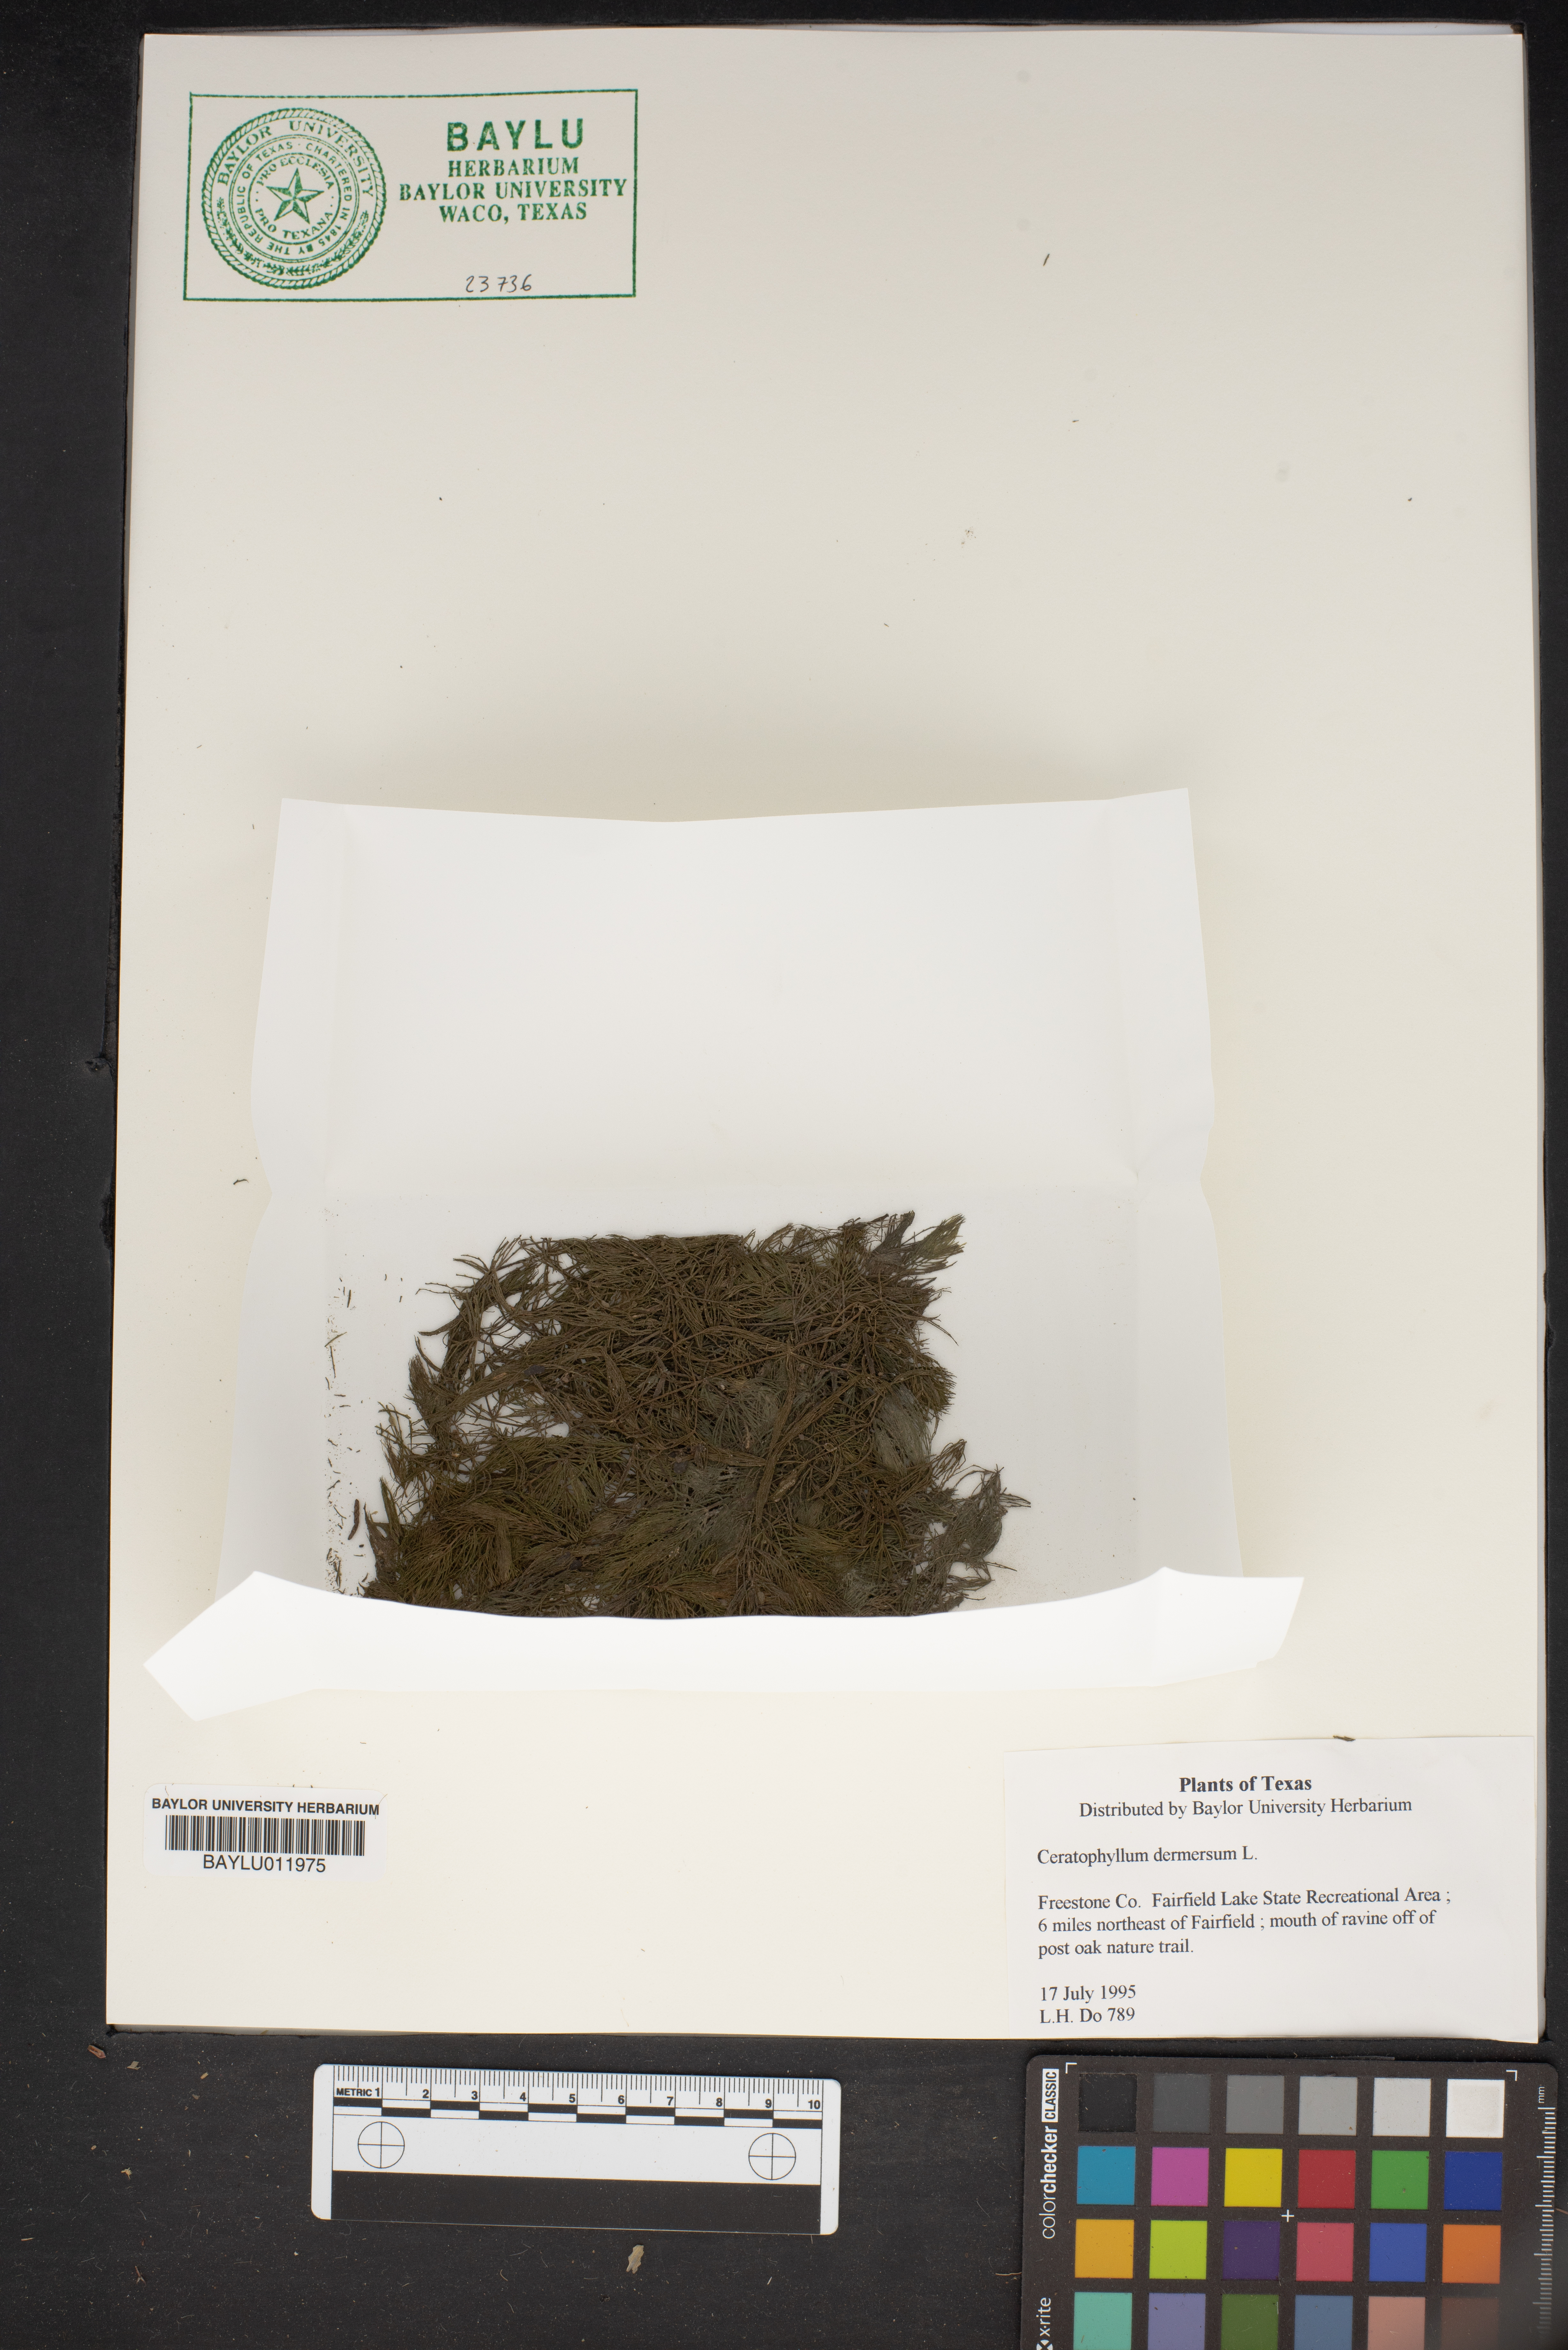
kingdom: Plantae
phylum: Tracheophyta
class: Magnoliopsida
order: Ceratophyllales
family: Ceratophyllaceae
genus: Ceratophyllum
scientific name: Ceratophyllum demersum
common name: Rigid hornwort
